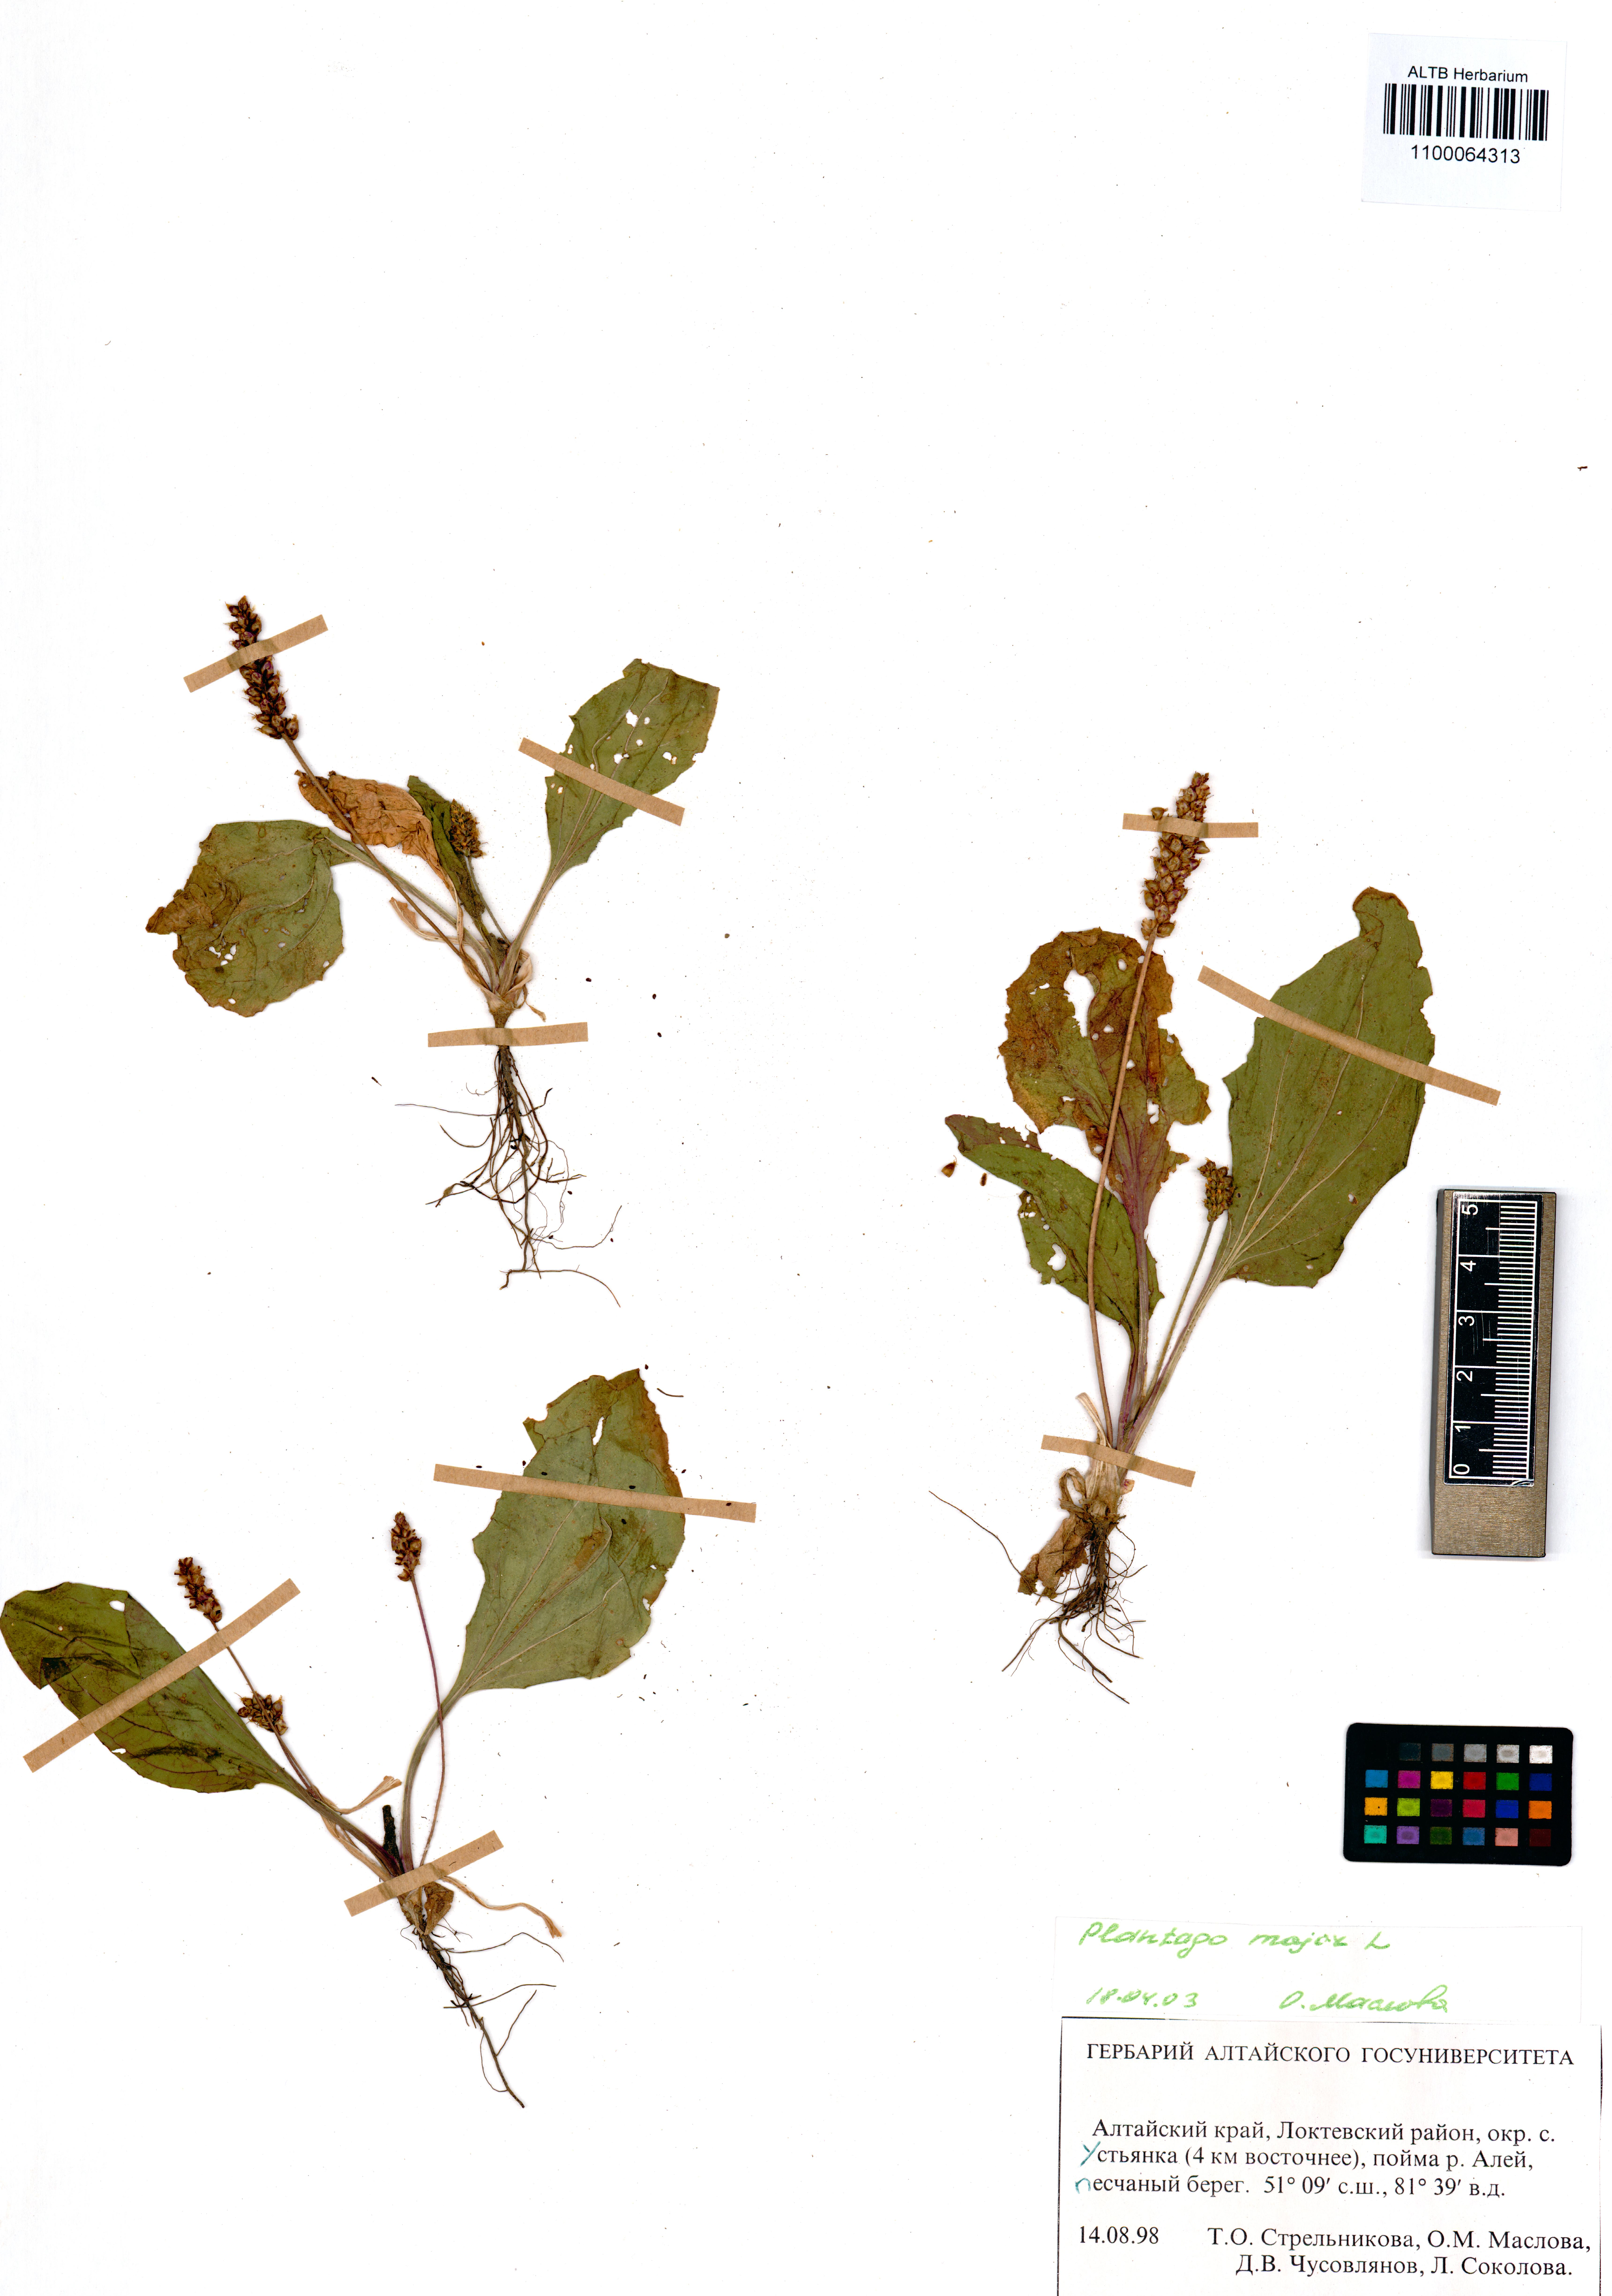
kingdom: Plantae
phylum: Tracheophyta
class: Magnoliopsida
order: Lamiales
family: Plantaginaceae
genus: Plantago
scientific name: Plantago major
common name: Common plantain
